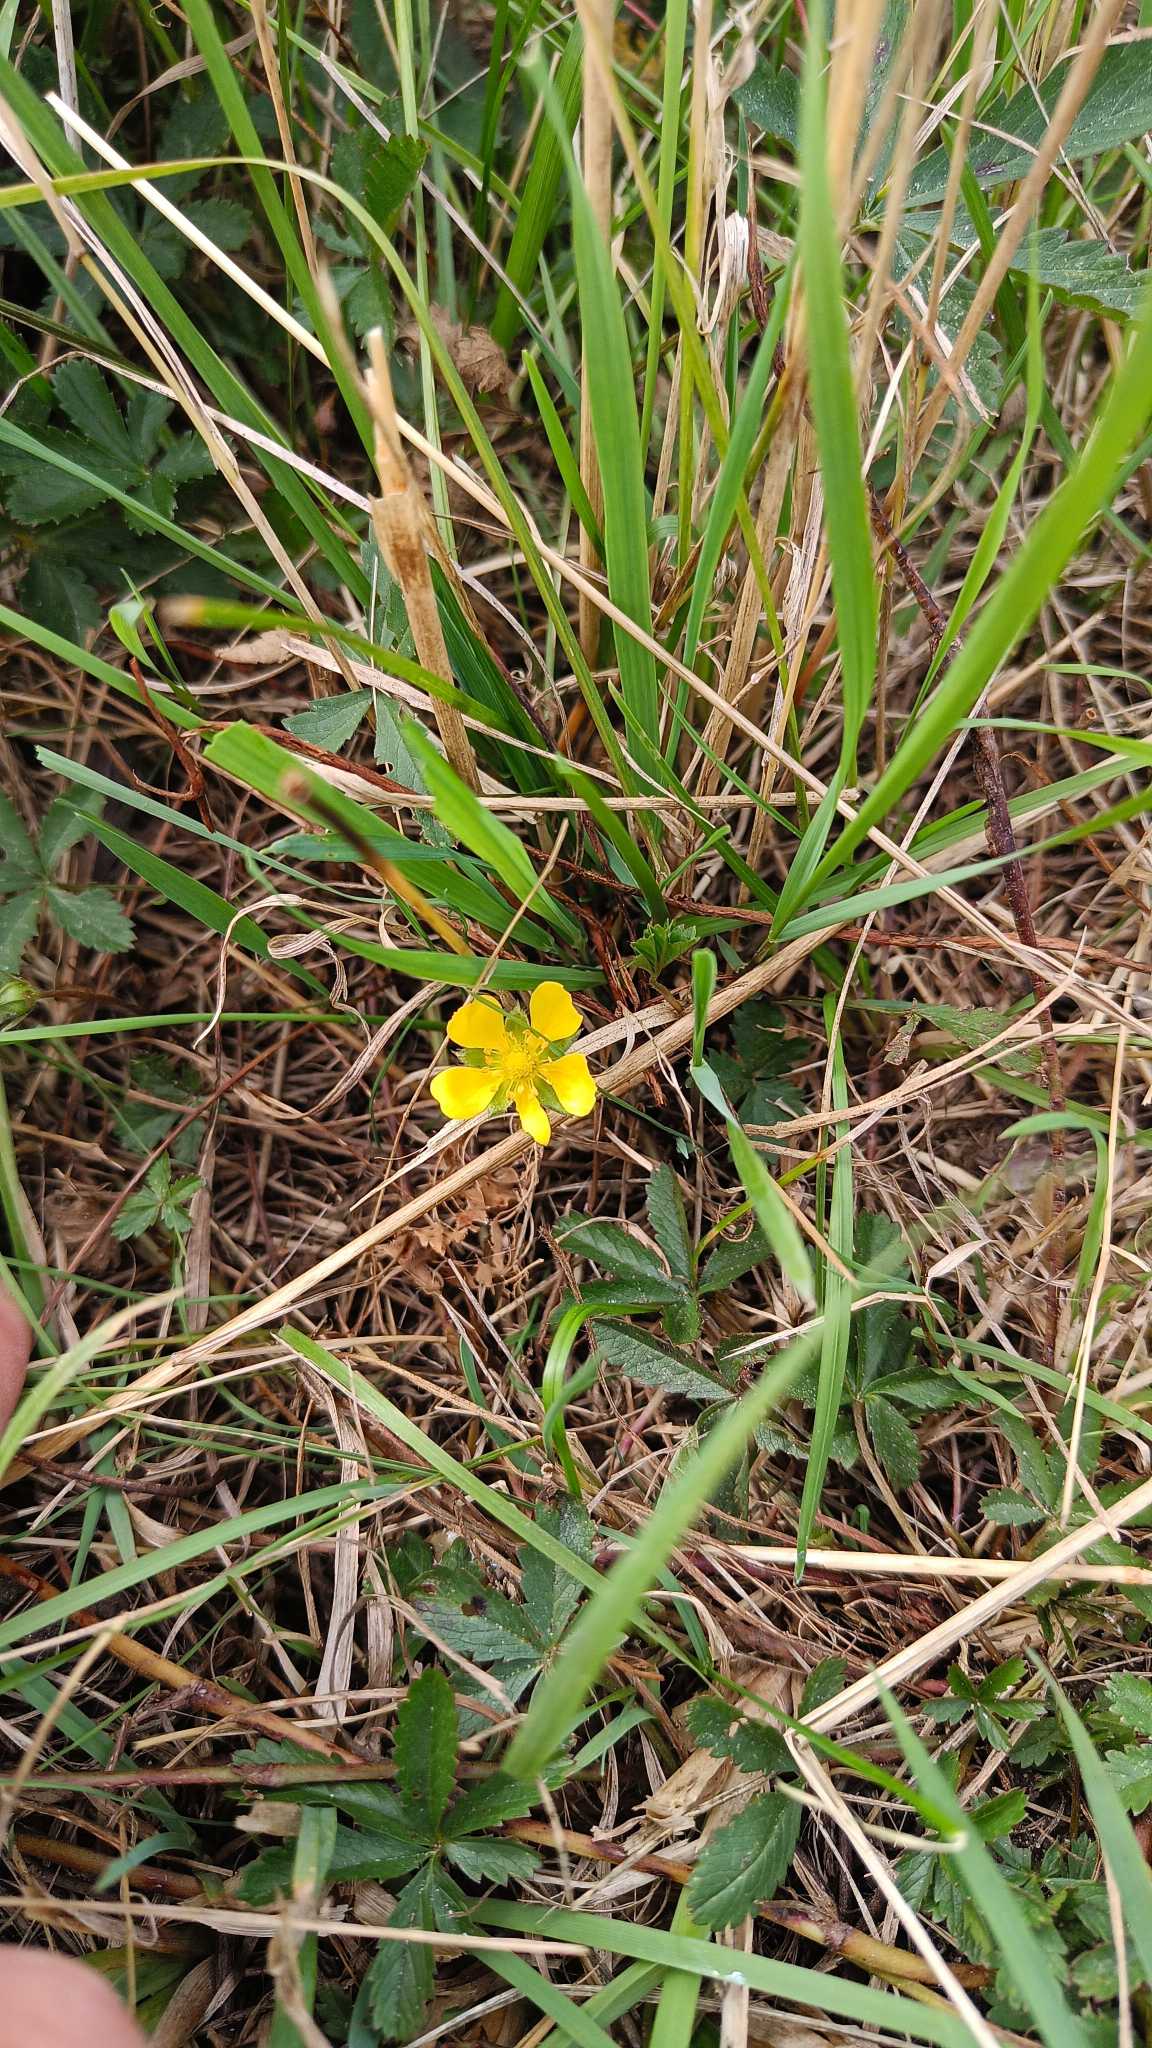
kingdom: Plantae
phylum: Tracheophyta
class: Magnoliopsida
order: Rosales
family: Rosaceae
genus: Potentilla
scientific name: Potentilla reptans
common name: Krybende potentil
